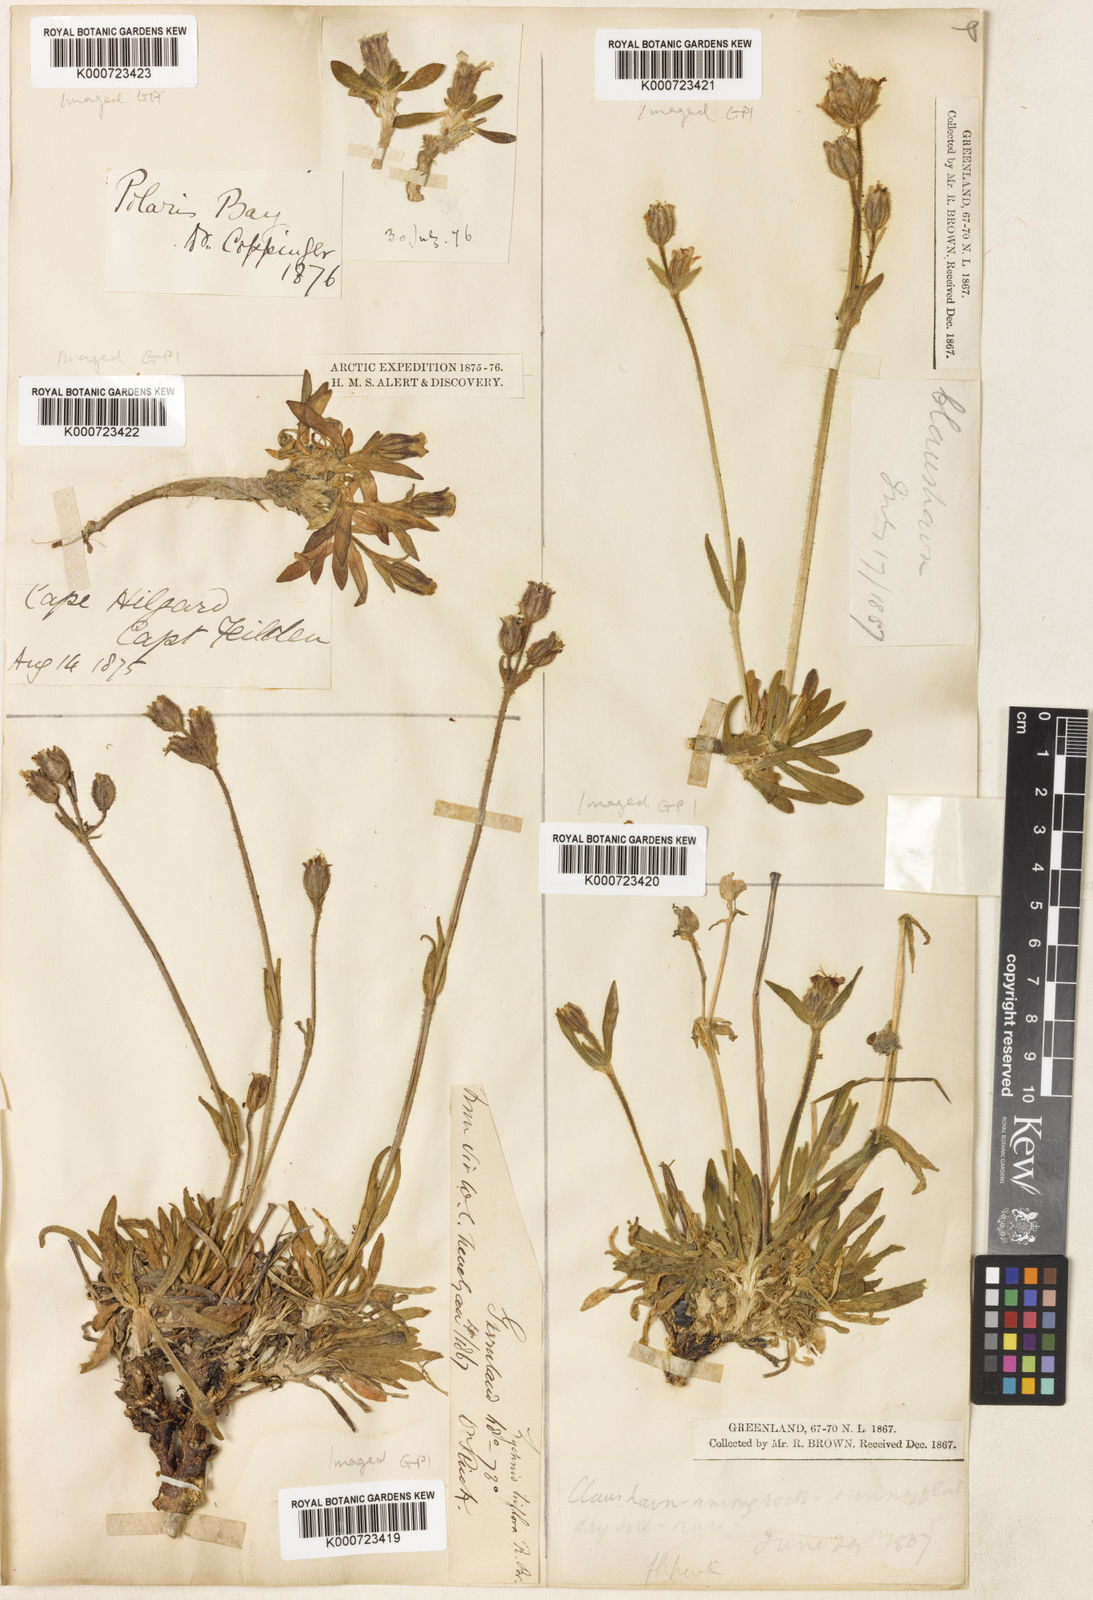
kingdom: Plantae
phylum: Tracheophyta
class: Magnoliopsida
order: Caryophyllales
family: Caryophyllaceae
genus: Silene
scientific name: Silene
